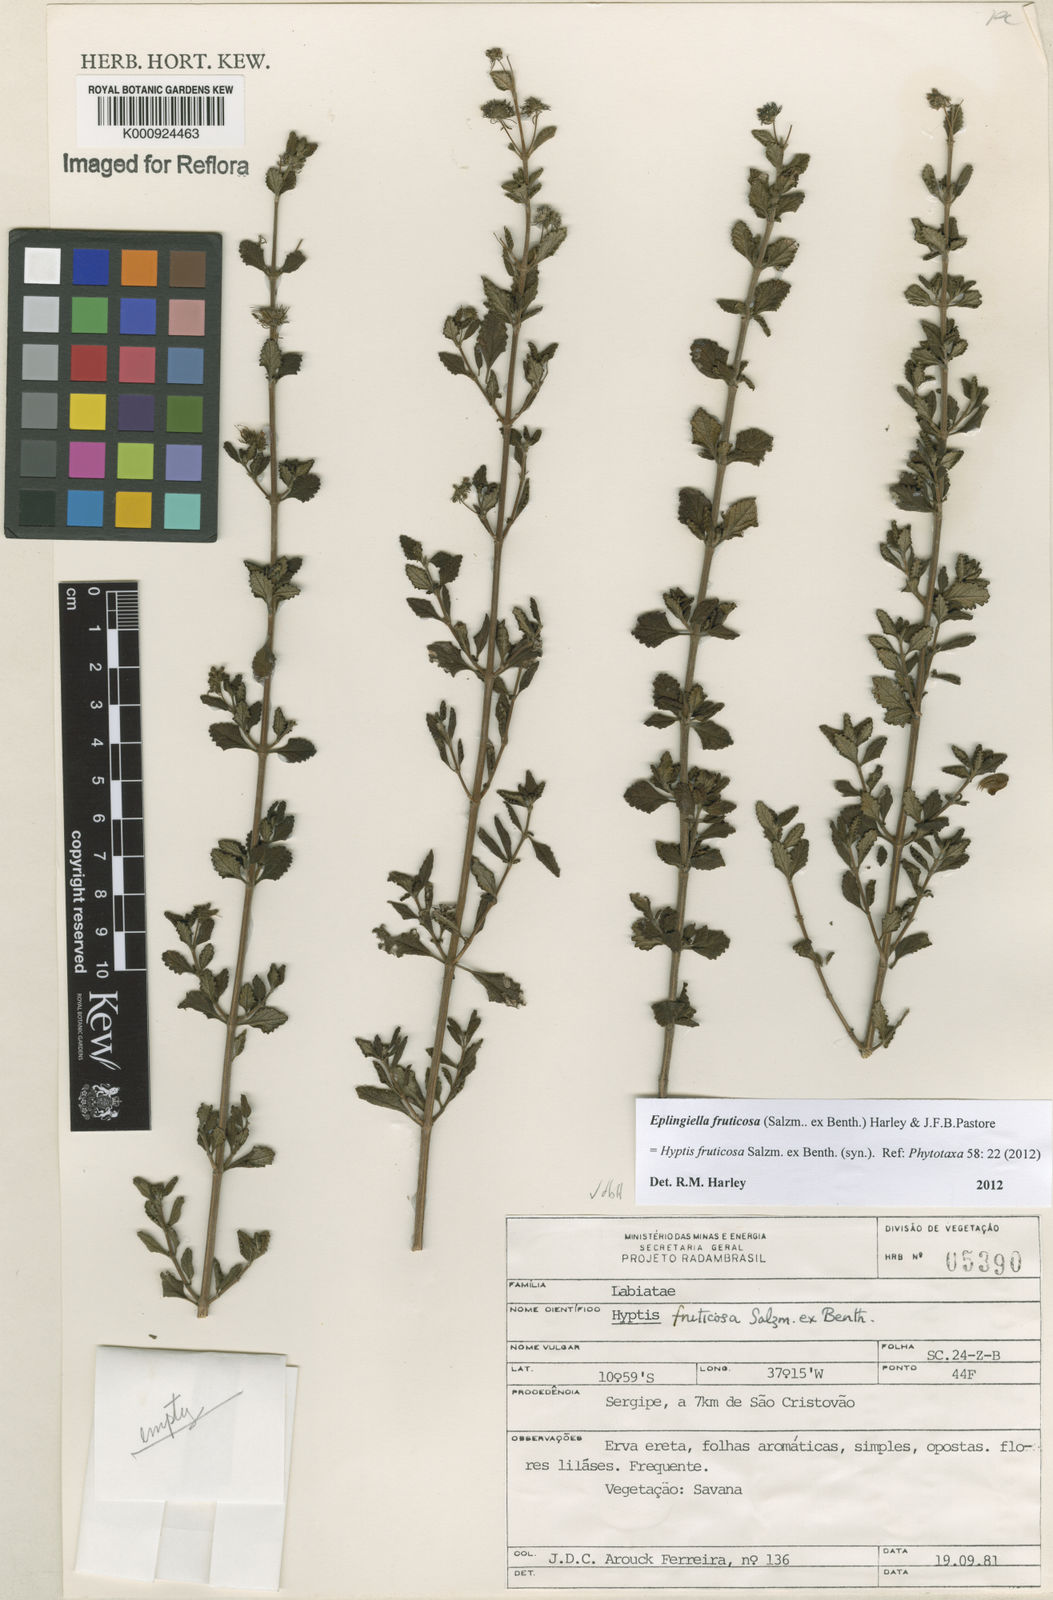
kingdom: Plantae
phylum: Tracheophyta
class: Magnoliopsida
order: Lamiales
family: Lamiaceae
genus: Eplingiella
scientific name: Eplingiella fruticosa
